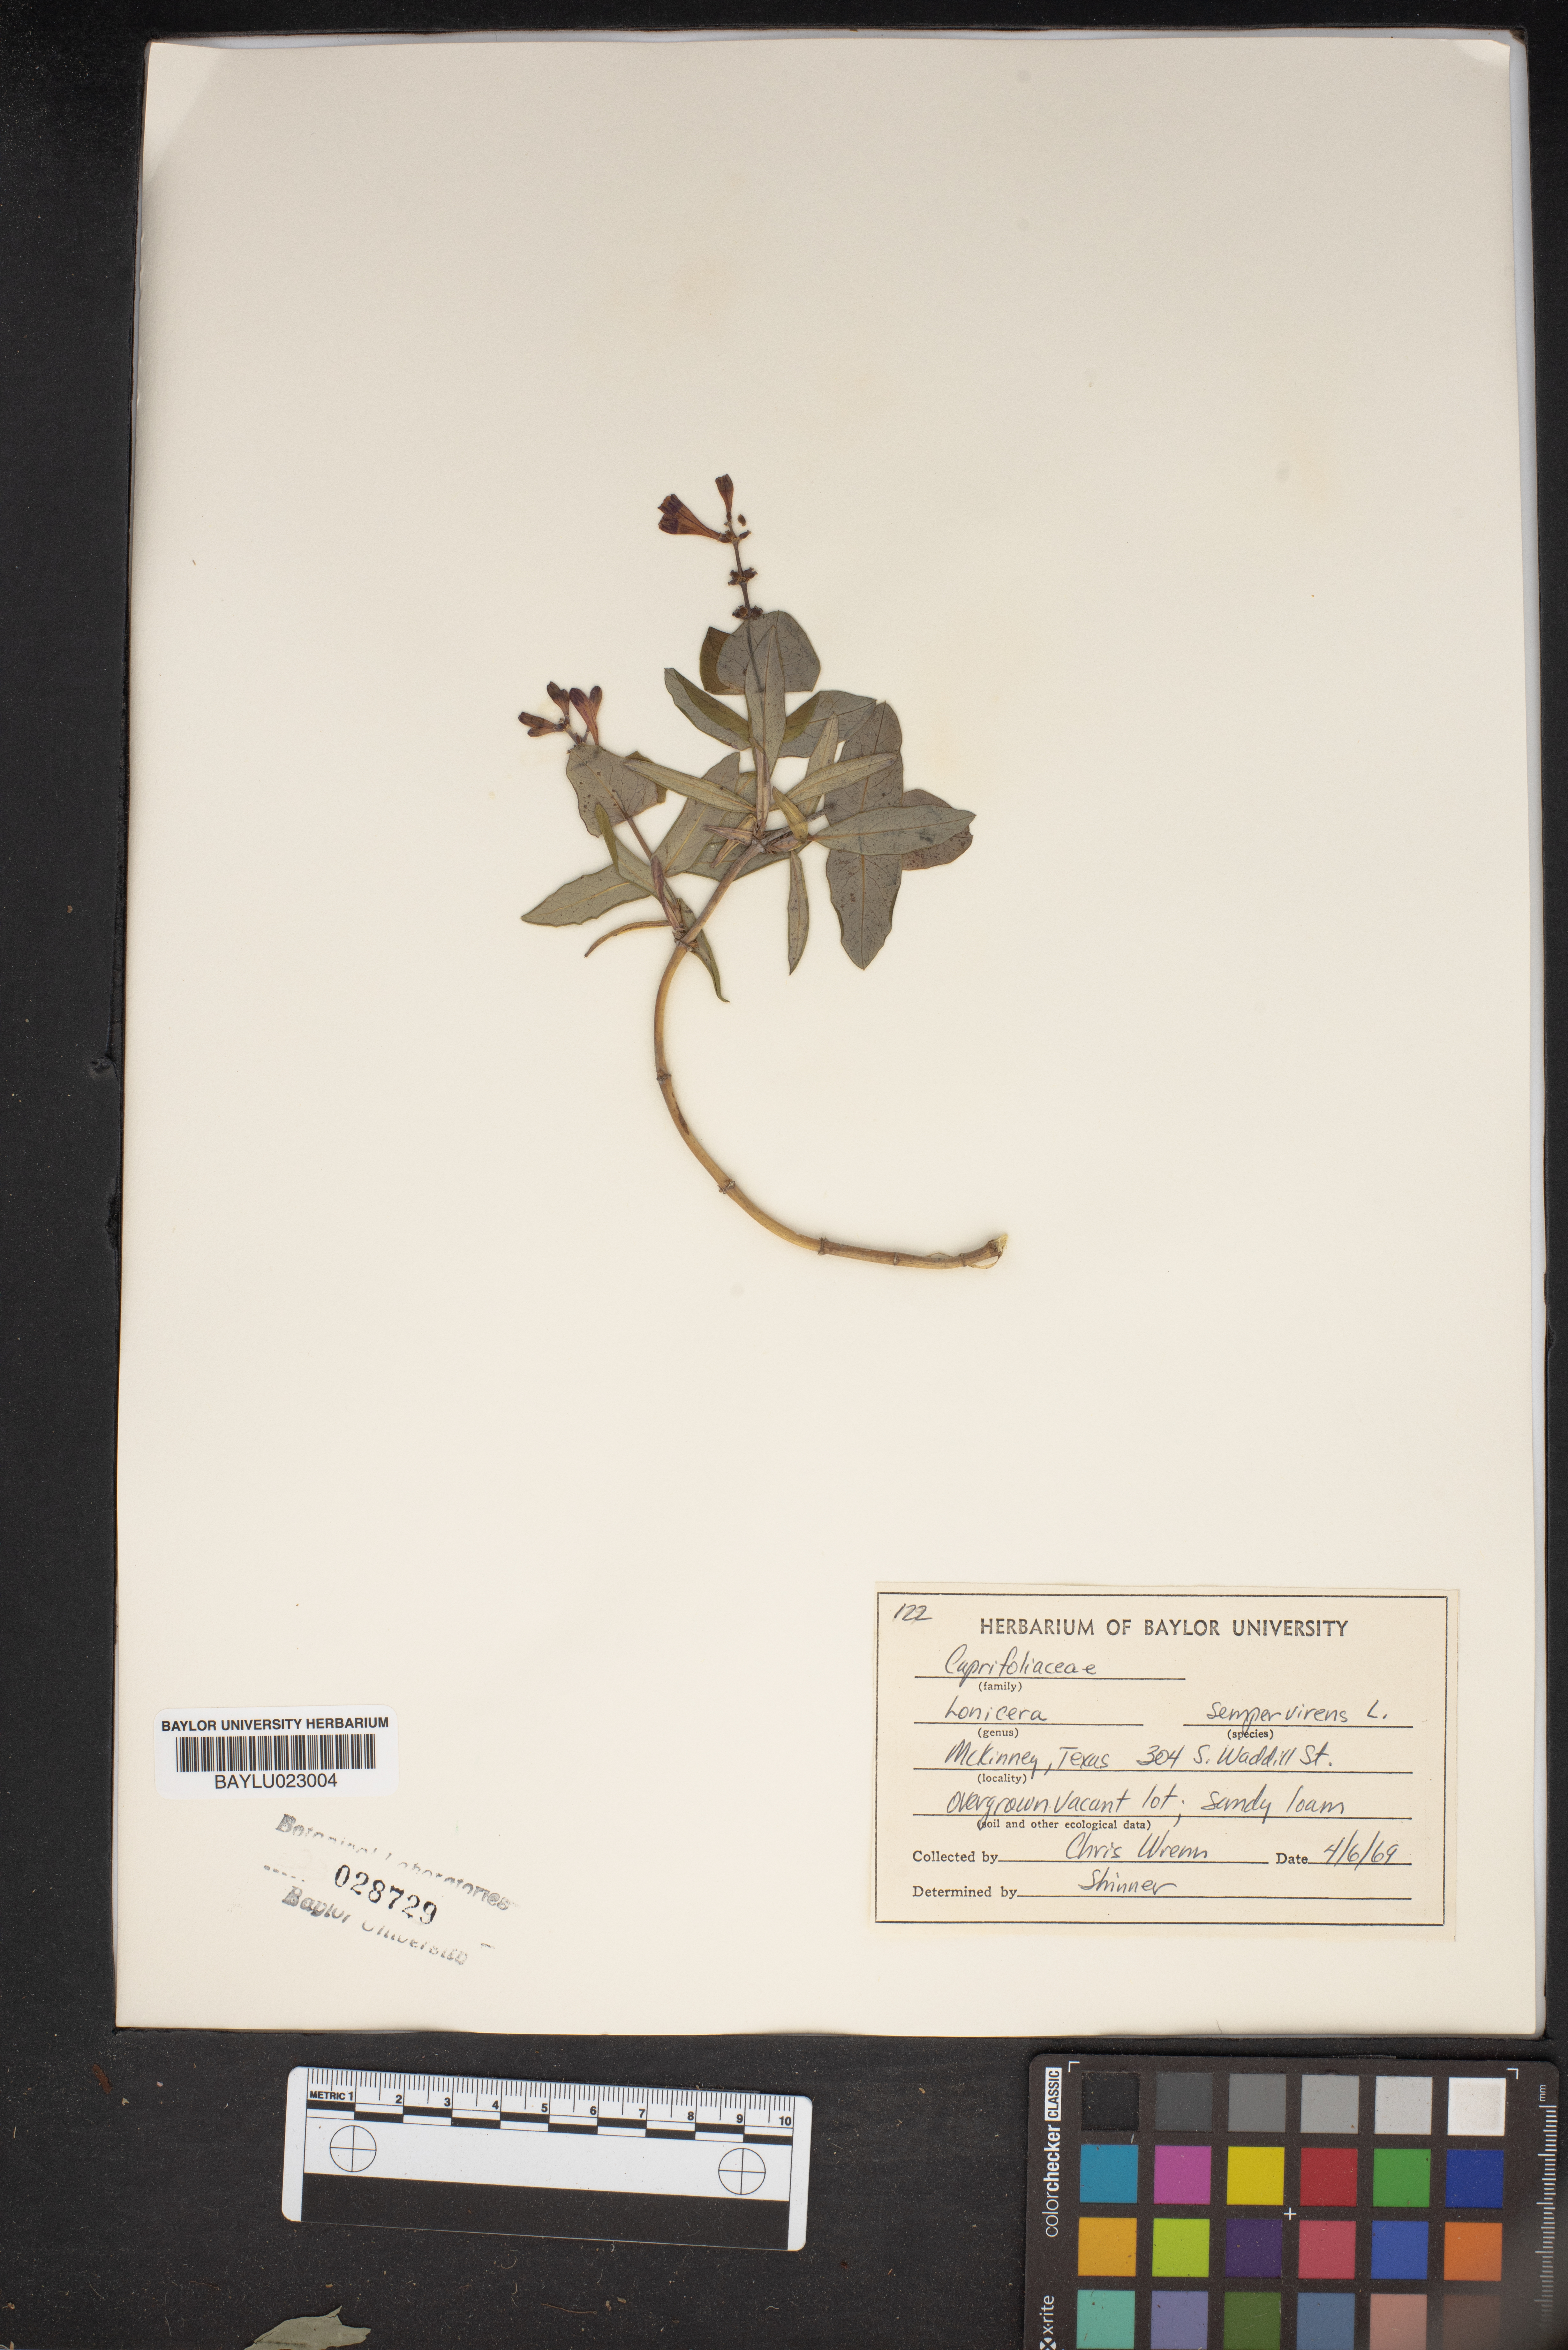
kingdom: Plantae
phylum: Tracheophyta
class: Magnoliopsida
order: Dipsacales
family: Caprifoliaceae
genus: Lonicera
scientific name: Lonicera sempervirens
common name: Coral honeysuckle
